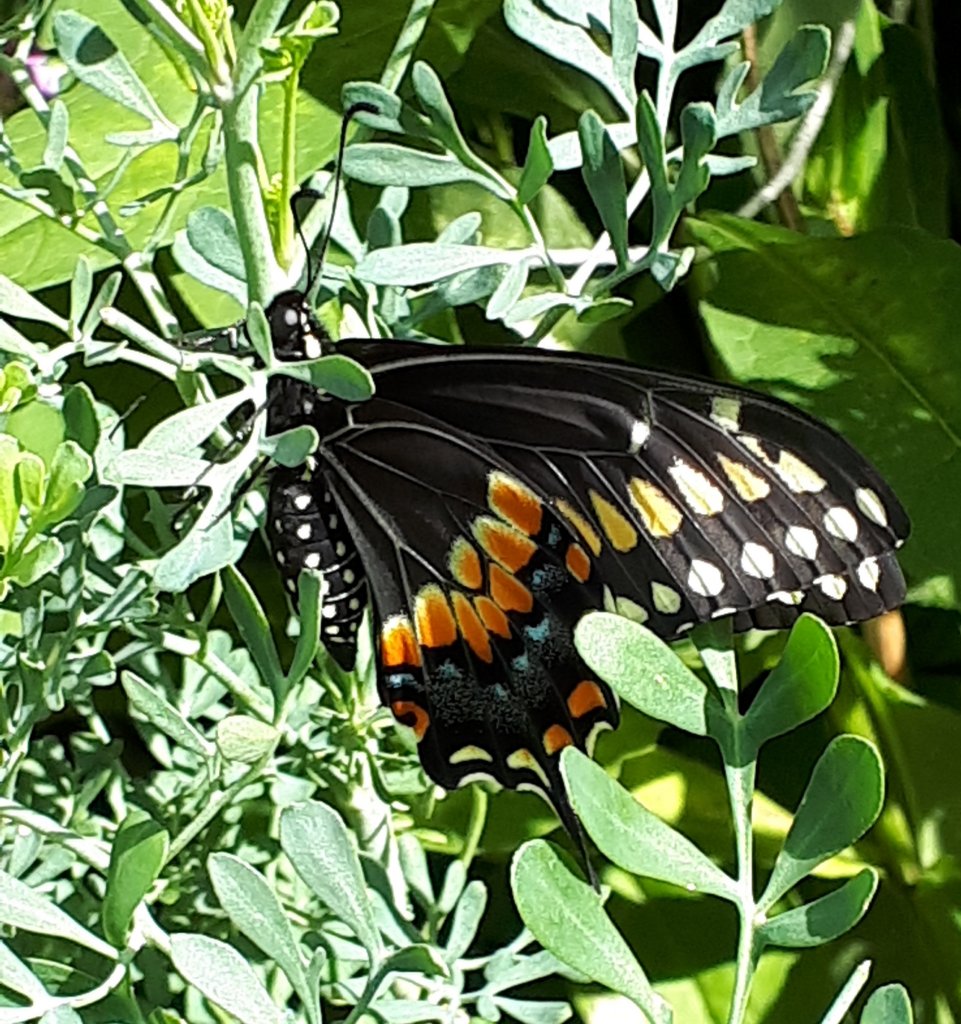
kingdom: Animalia
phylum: Arthropoda
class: Insecta
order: Lepidoptera
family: Papilionidae
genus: Papilio
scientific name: Papilio polyxenes
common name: Black Swallowtail
